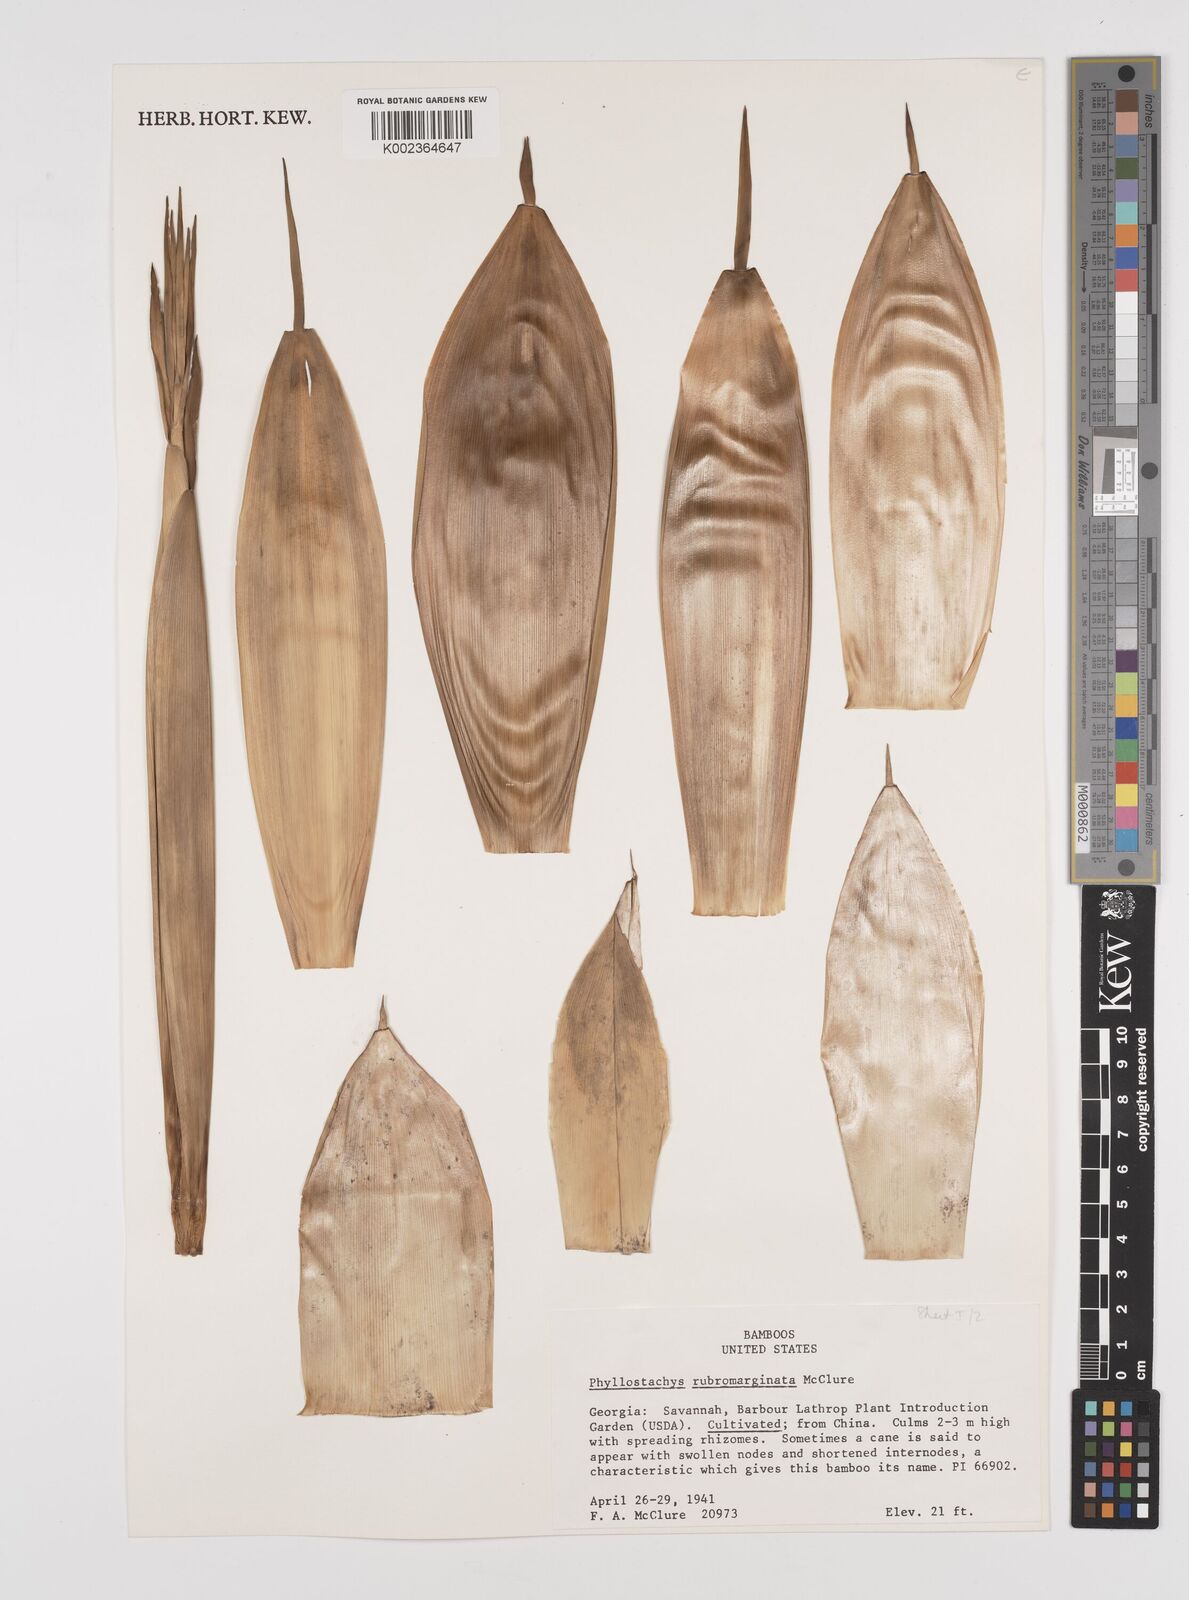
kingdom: Plantae
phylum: Tracheophyta
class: Liliopsida
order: Poales
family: Poaceae
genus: Phyllostachys
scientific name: Phyllostachys rubromarginata
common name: Reddish bamboo
